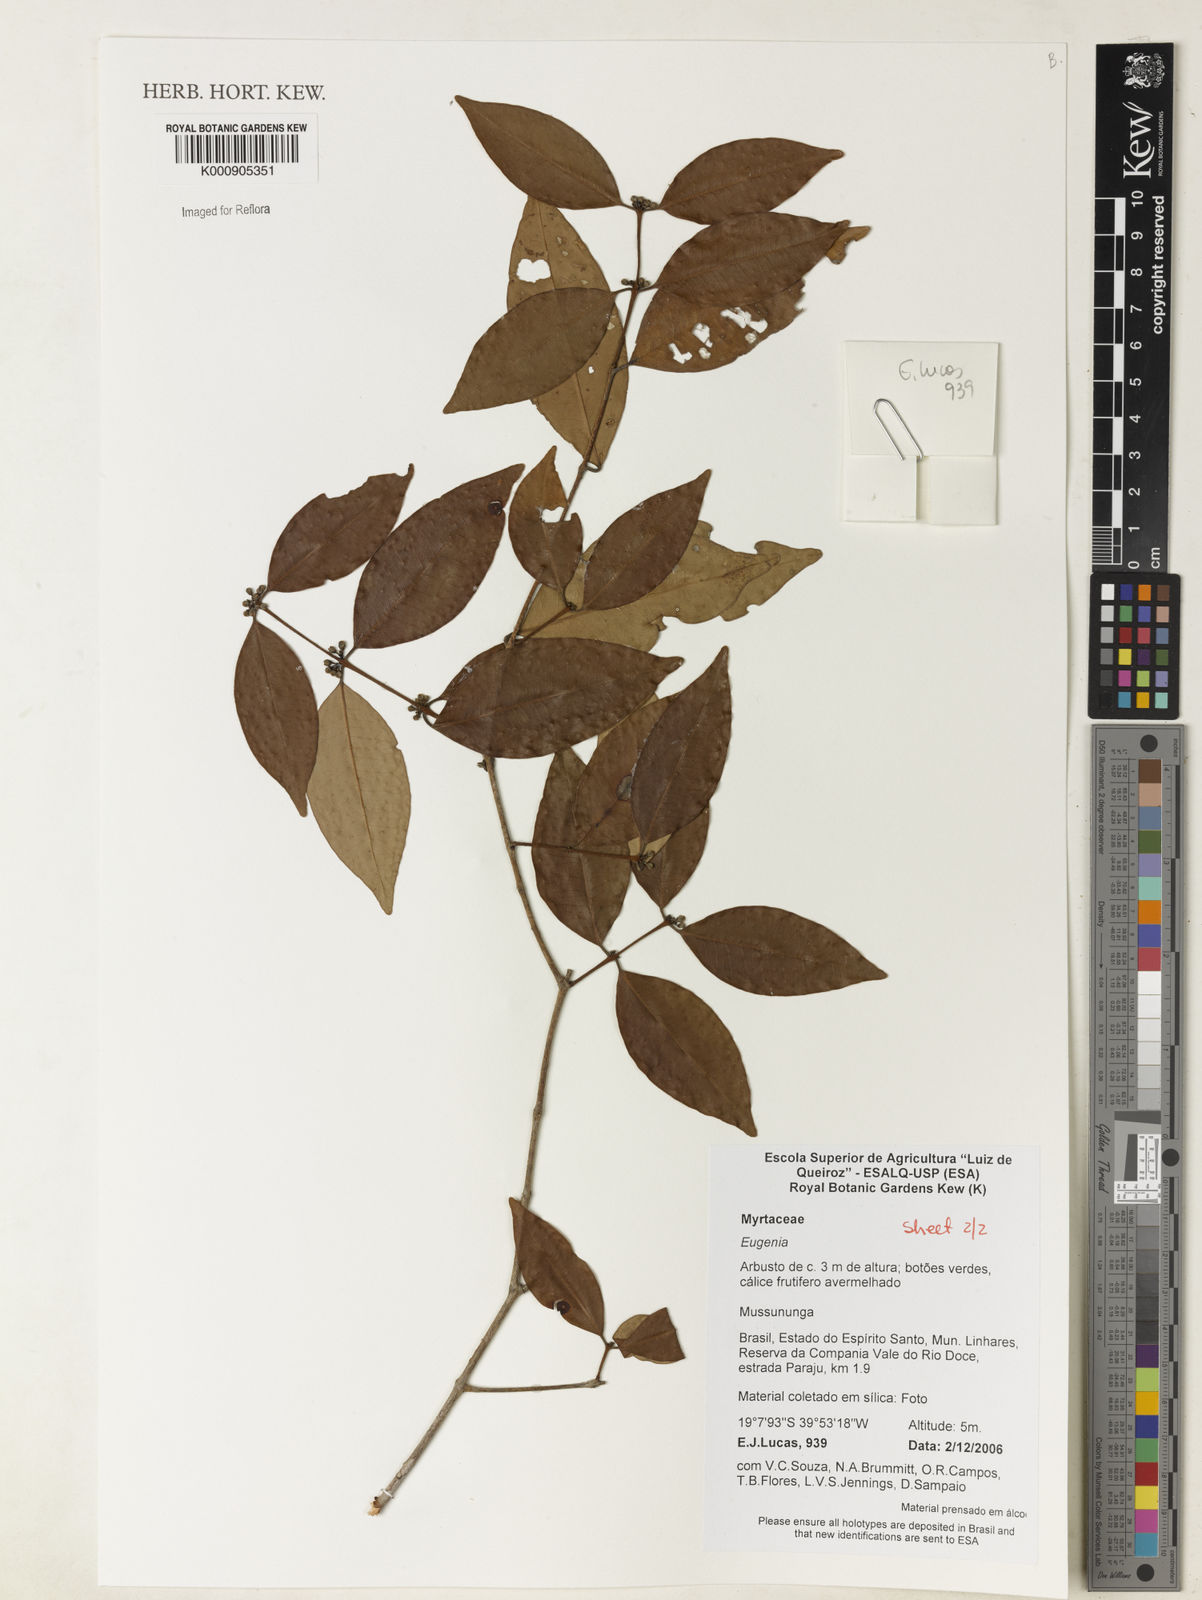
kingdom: Plantae
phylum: Tracheophyta
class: Magnoliopsida
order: Myrtales
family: Myrtaceae
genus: Eugenia
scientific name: Eugenia brejoensis
